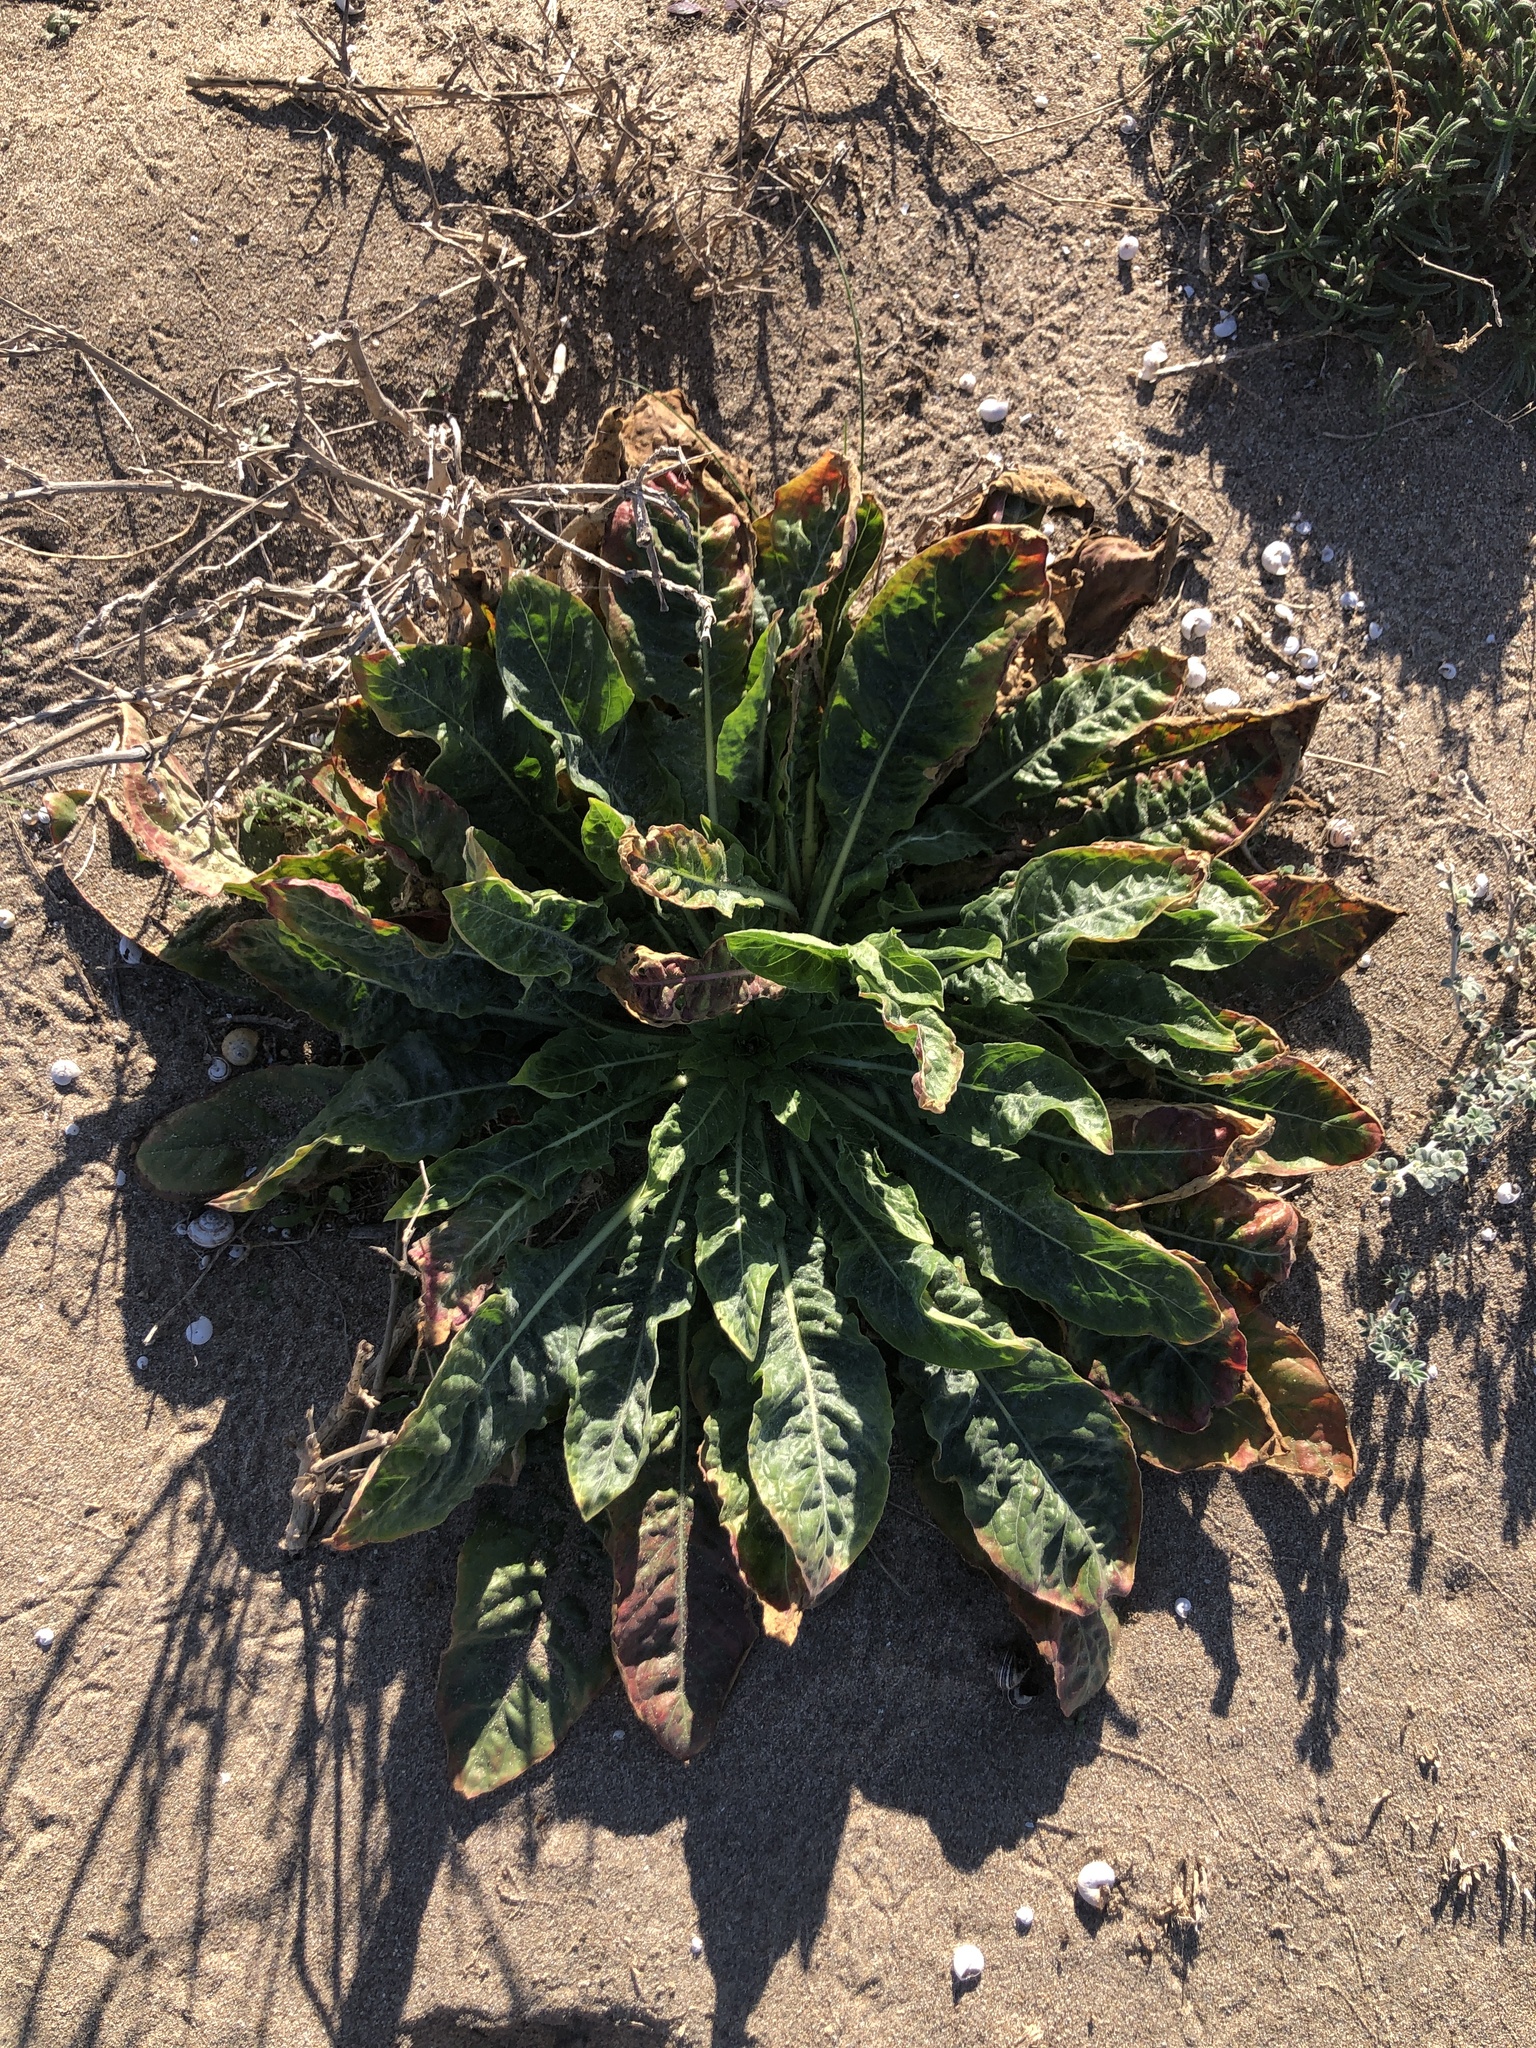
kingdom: Plantae
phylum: Tracheophyta
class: Magnoliopsida
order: Myrtales
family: Onagraceae
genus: Oenothera
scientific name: Oenothera glazioviana
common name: Large-flowered evening-primrose
